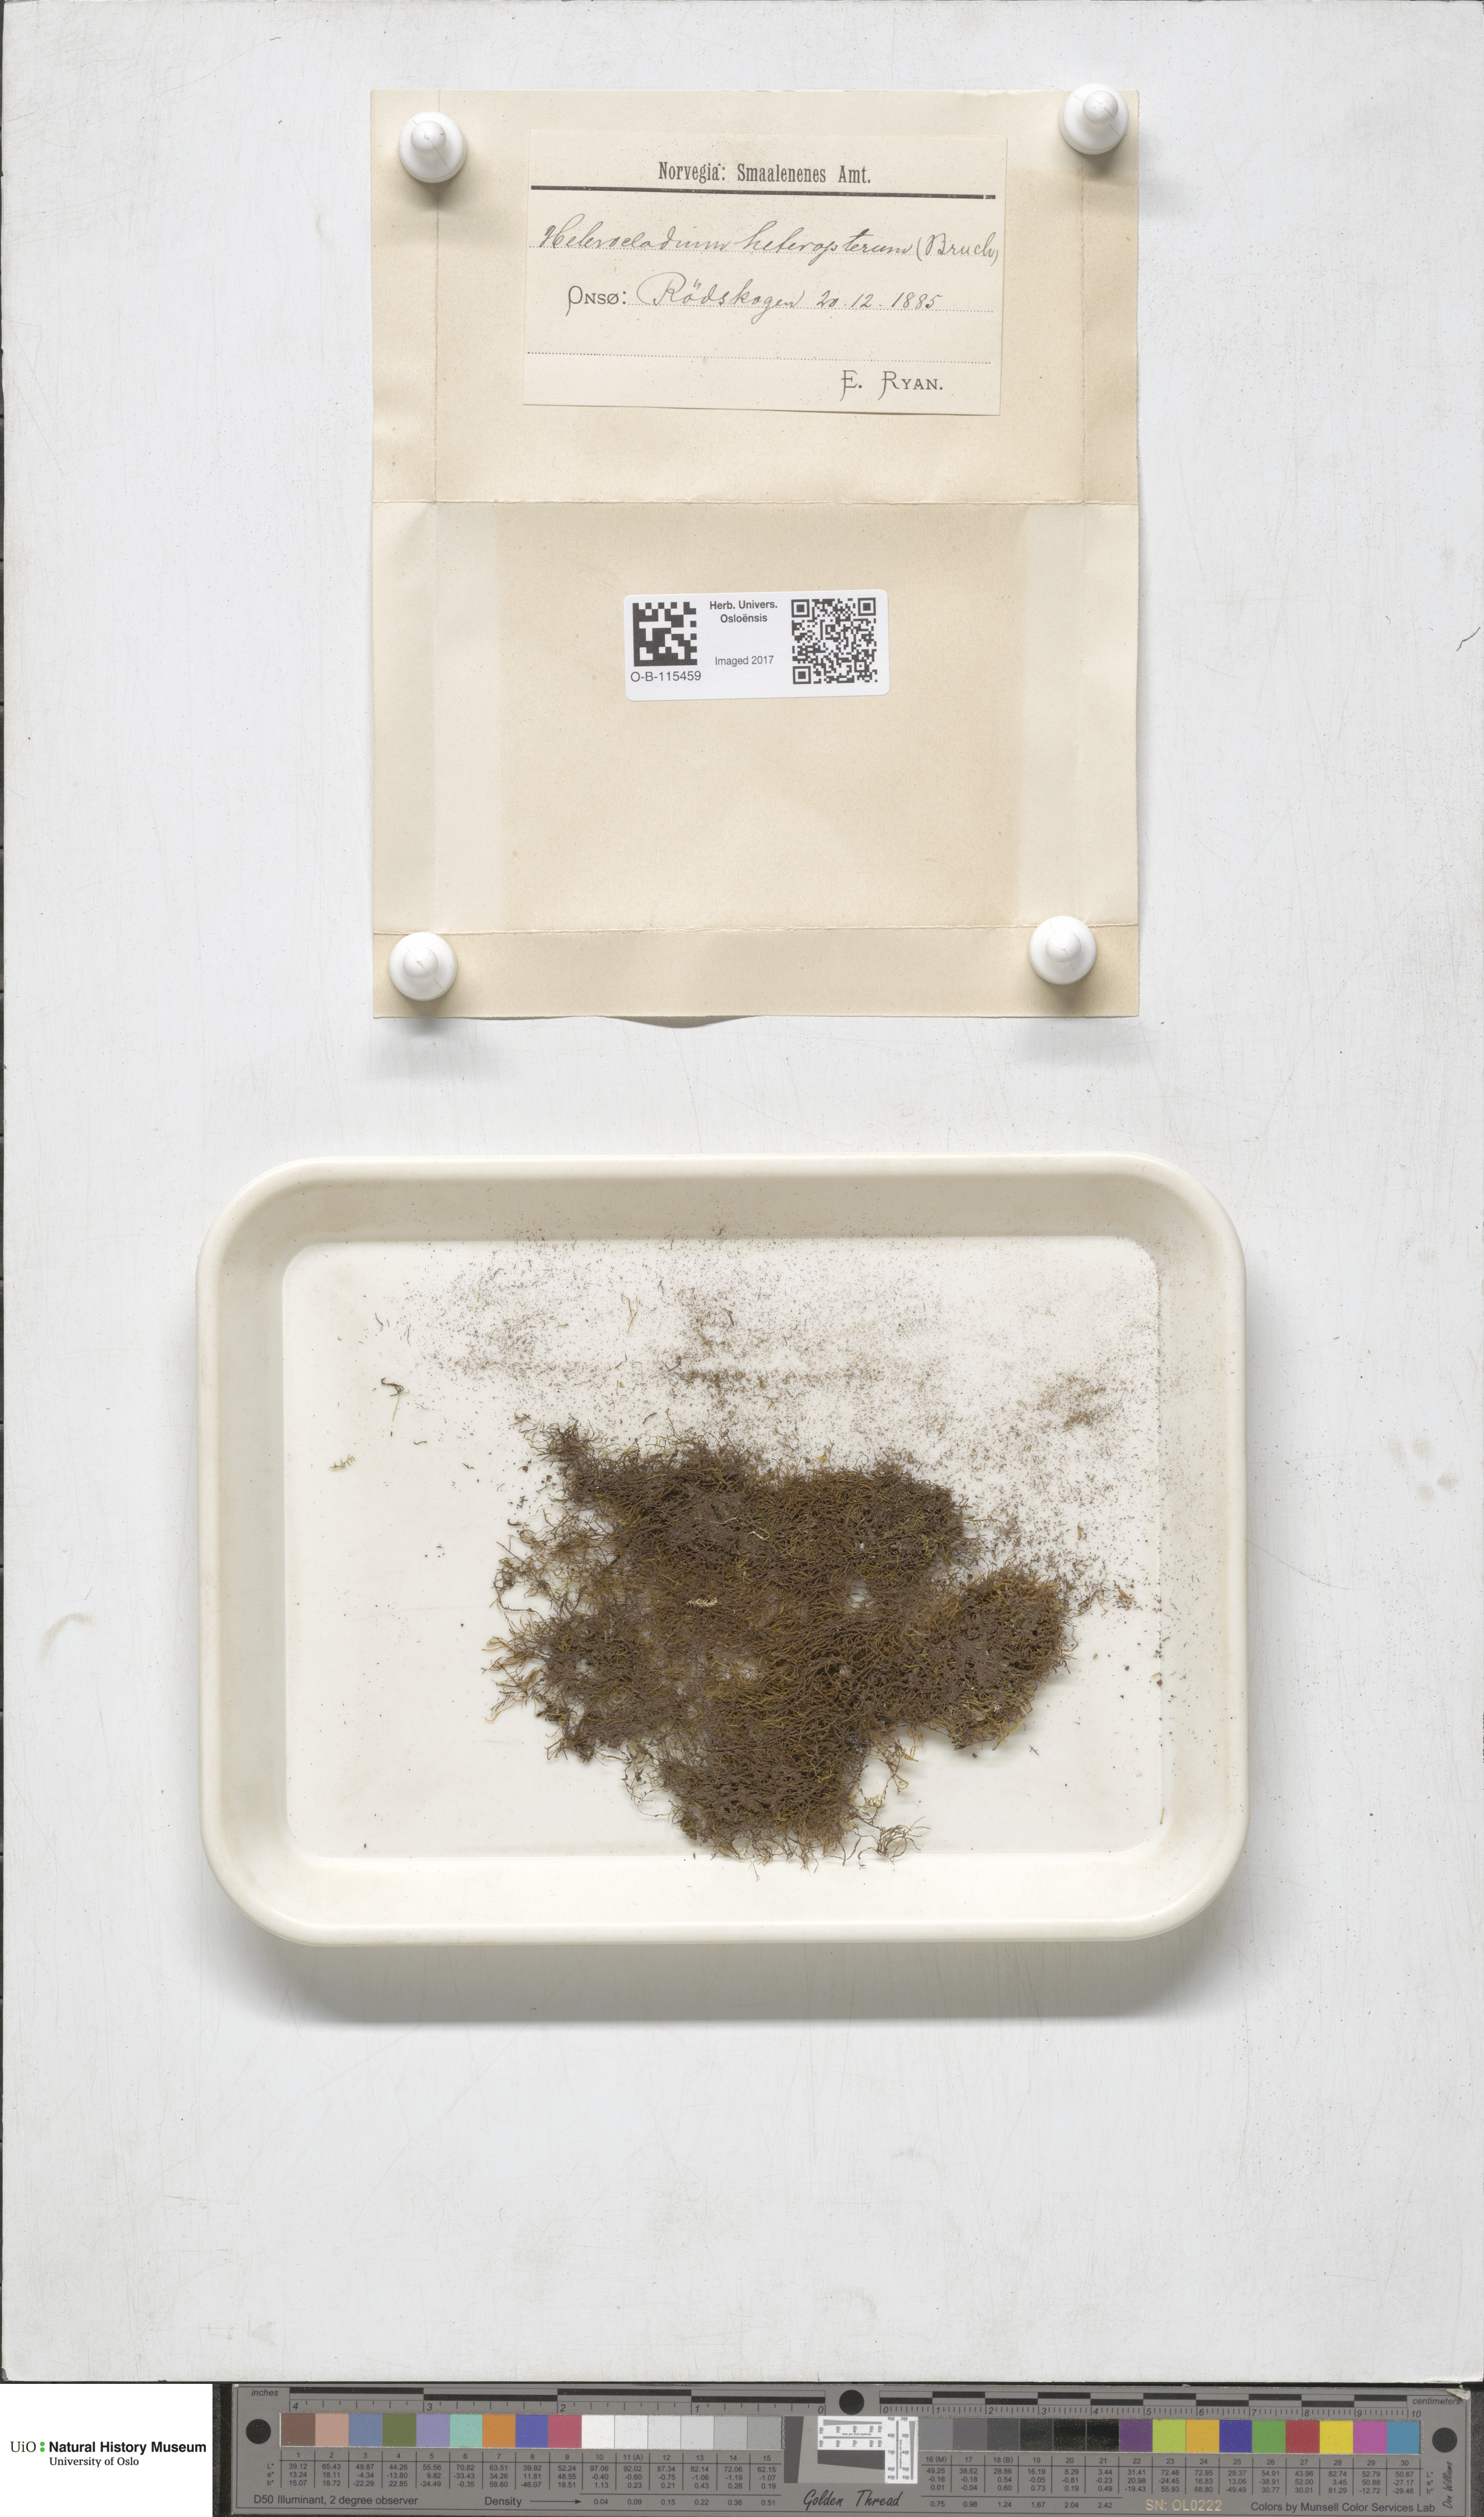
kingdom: Plantae
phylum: Bryophyta
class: Bryopsida
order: Hypnales
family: Lembophyllaceae
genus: Heterocladium
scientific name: Heterocladium heteropterum
